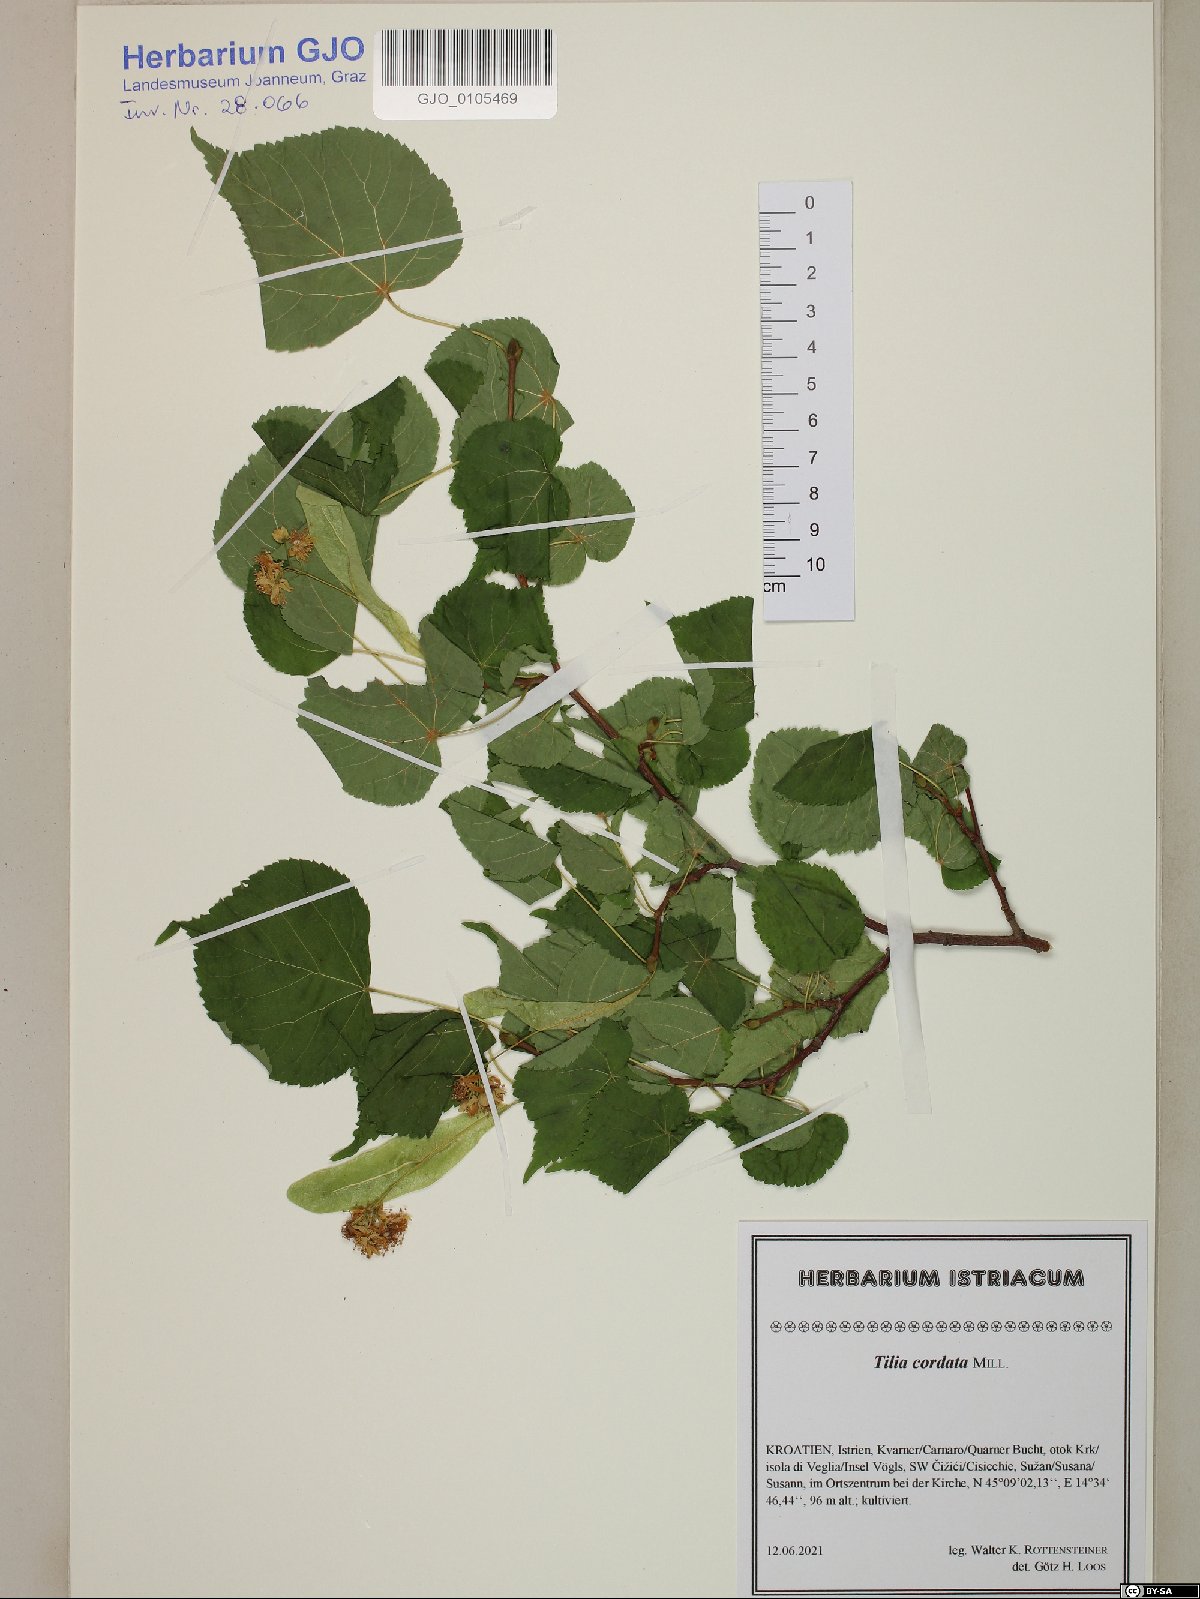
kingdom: Plantae
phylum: Tracheophyta
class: Magnoliopsida
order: Malvales
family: Malvaceae
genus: Tilia
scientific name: Tilia cordata
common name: Small-leaved lime
